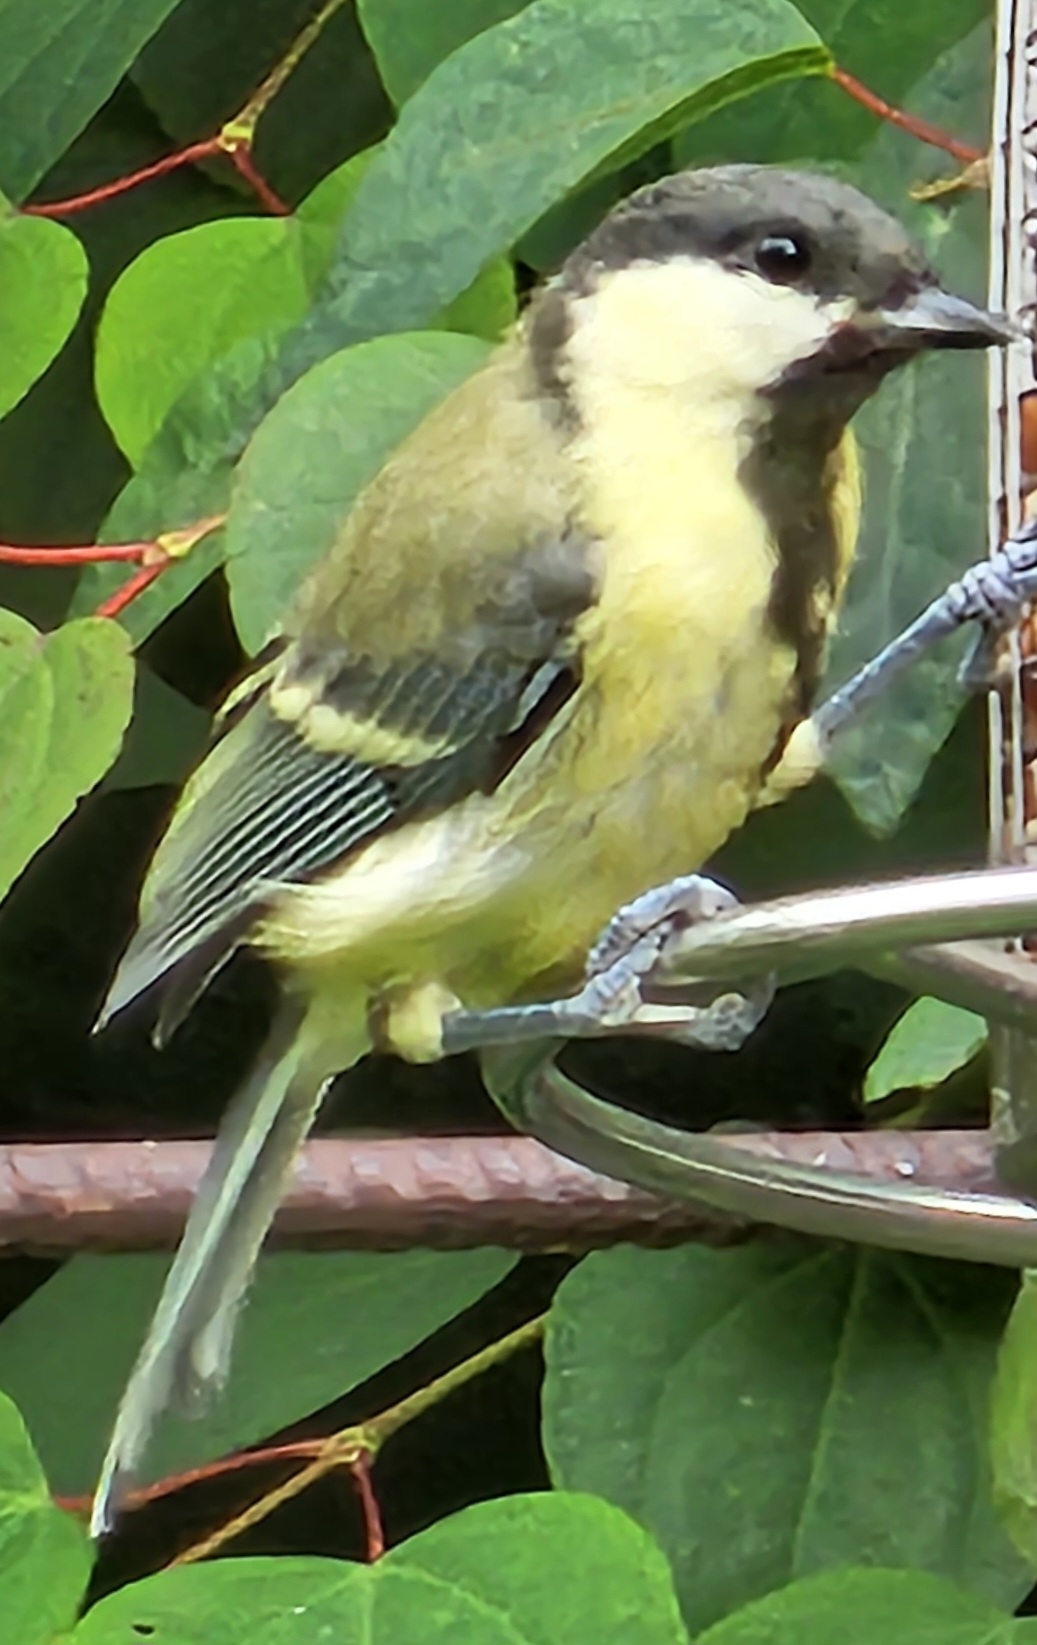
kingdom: Animalia
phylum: Chordata
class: Aves
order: Passeriformes
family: Paridae
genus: Parus
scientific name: Parus major
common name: Musvit
